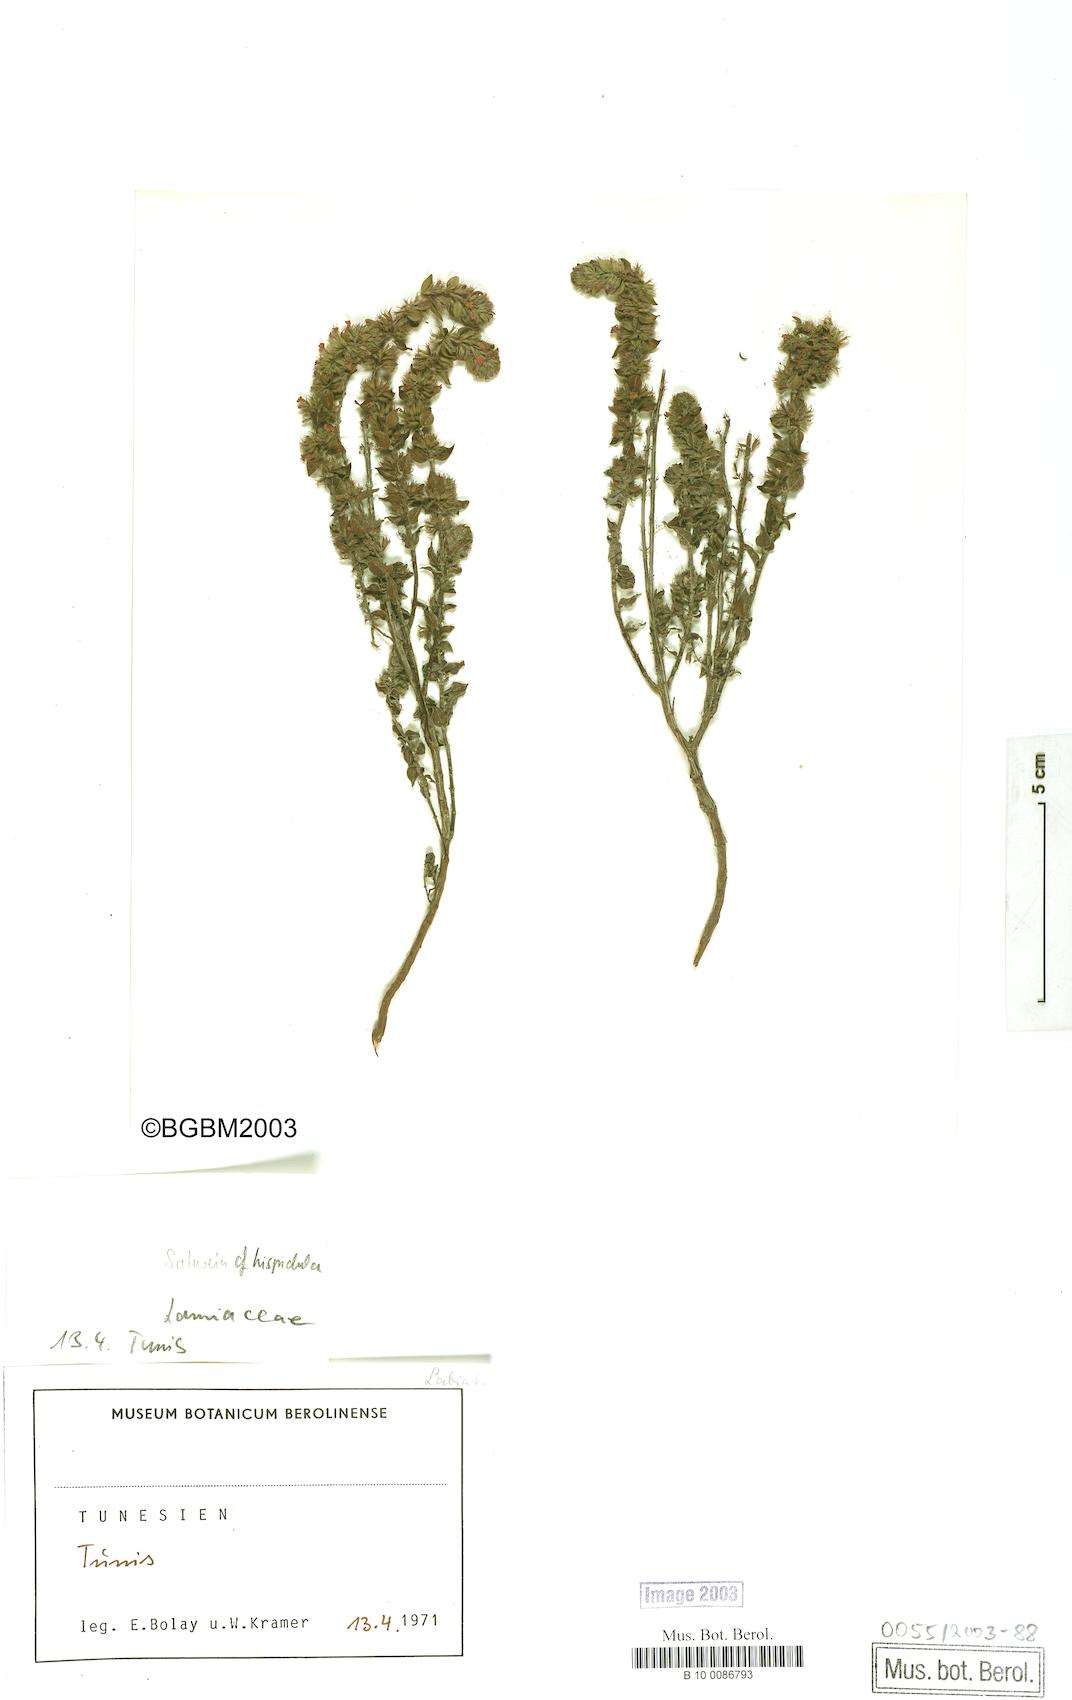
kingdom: Plantae
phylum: Tracheophyta
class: Magnoliopsida
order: Lamiales
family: Lamiaceae
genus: Clinopodium
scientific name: Clinopodium hispidulum
